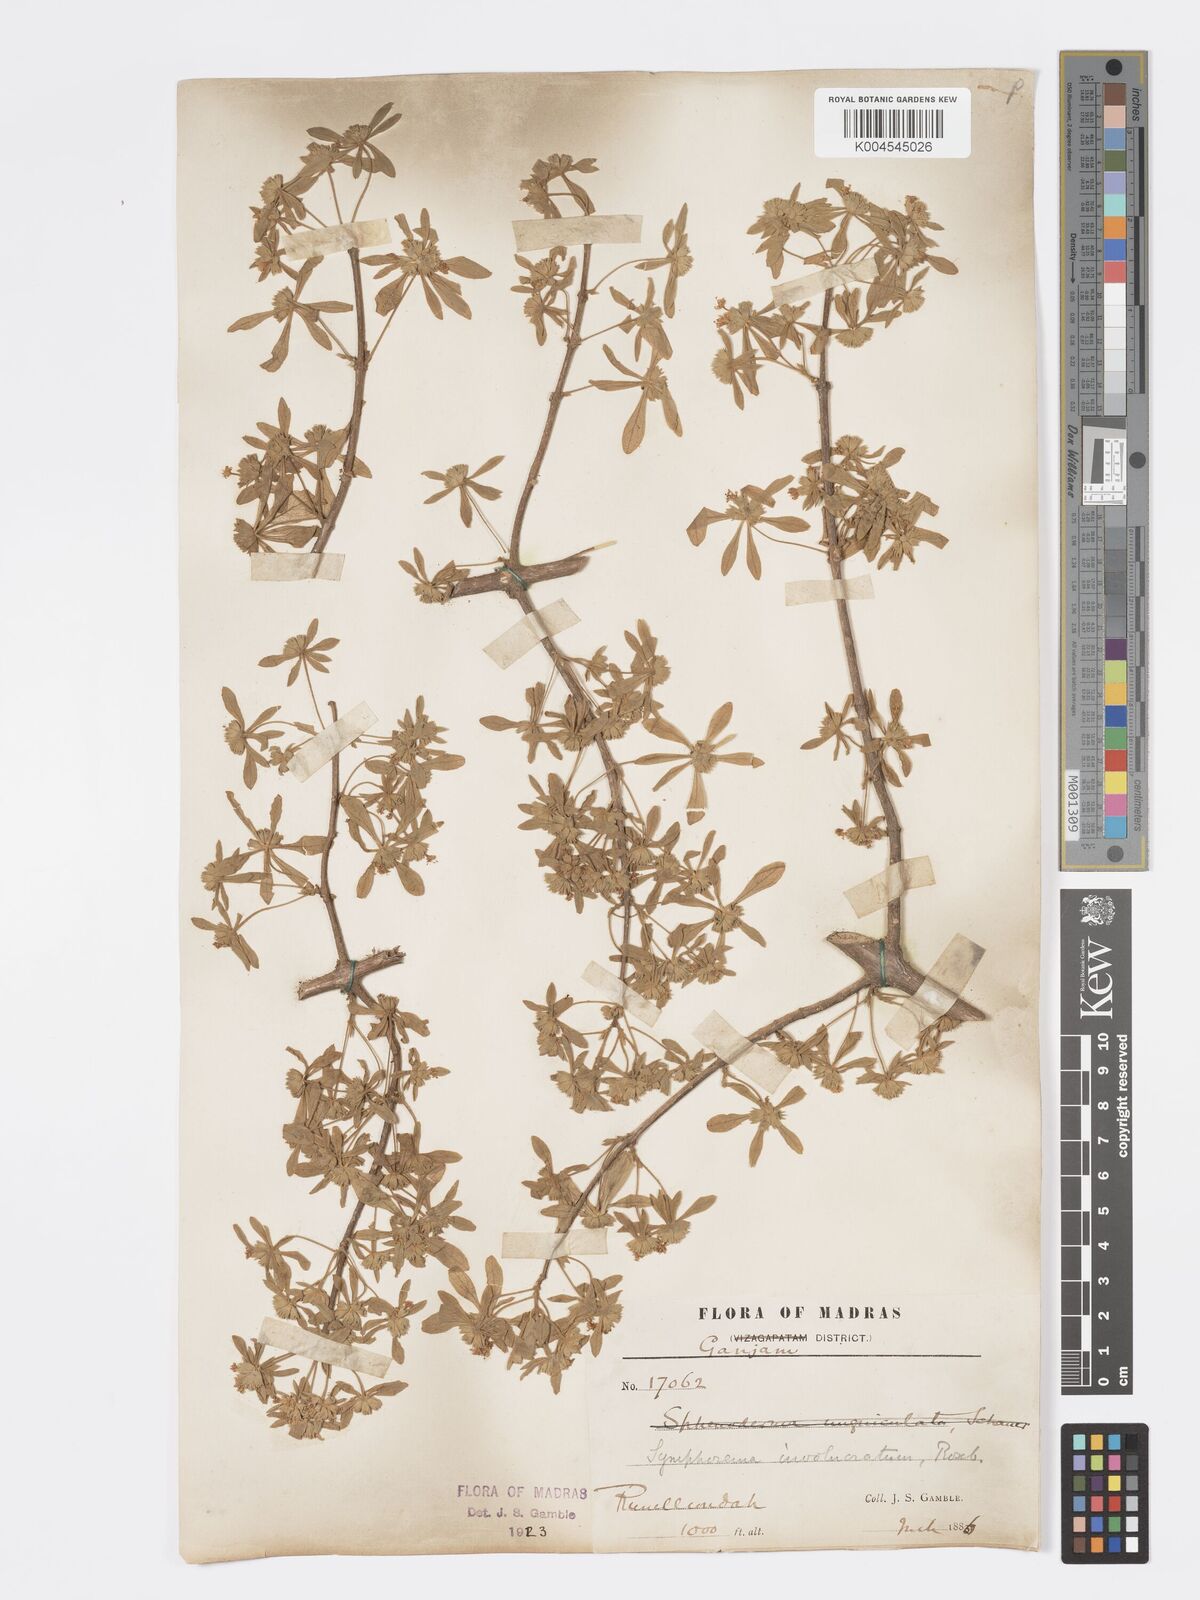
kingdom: Plantae
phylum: Tracheophyta
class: Magnoliopsida
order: Lamiales
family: Lamiaceae
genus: Symphorema
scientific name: Symphorema involucratum
